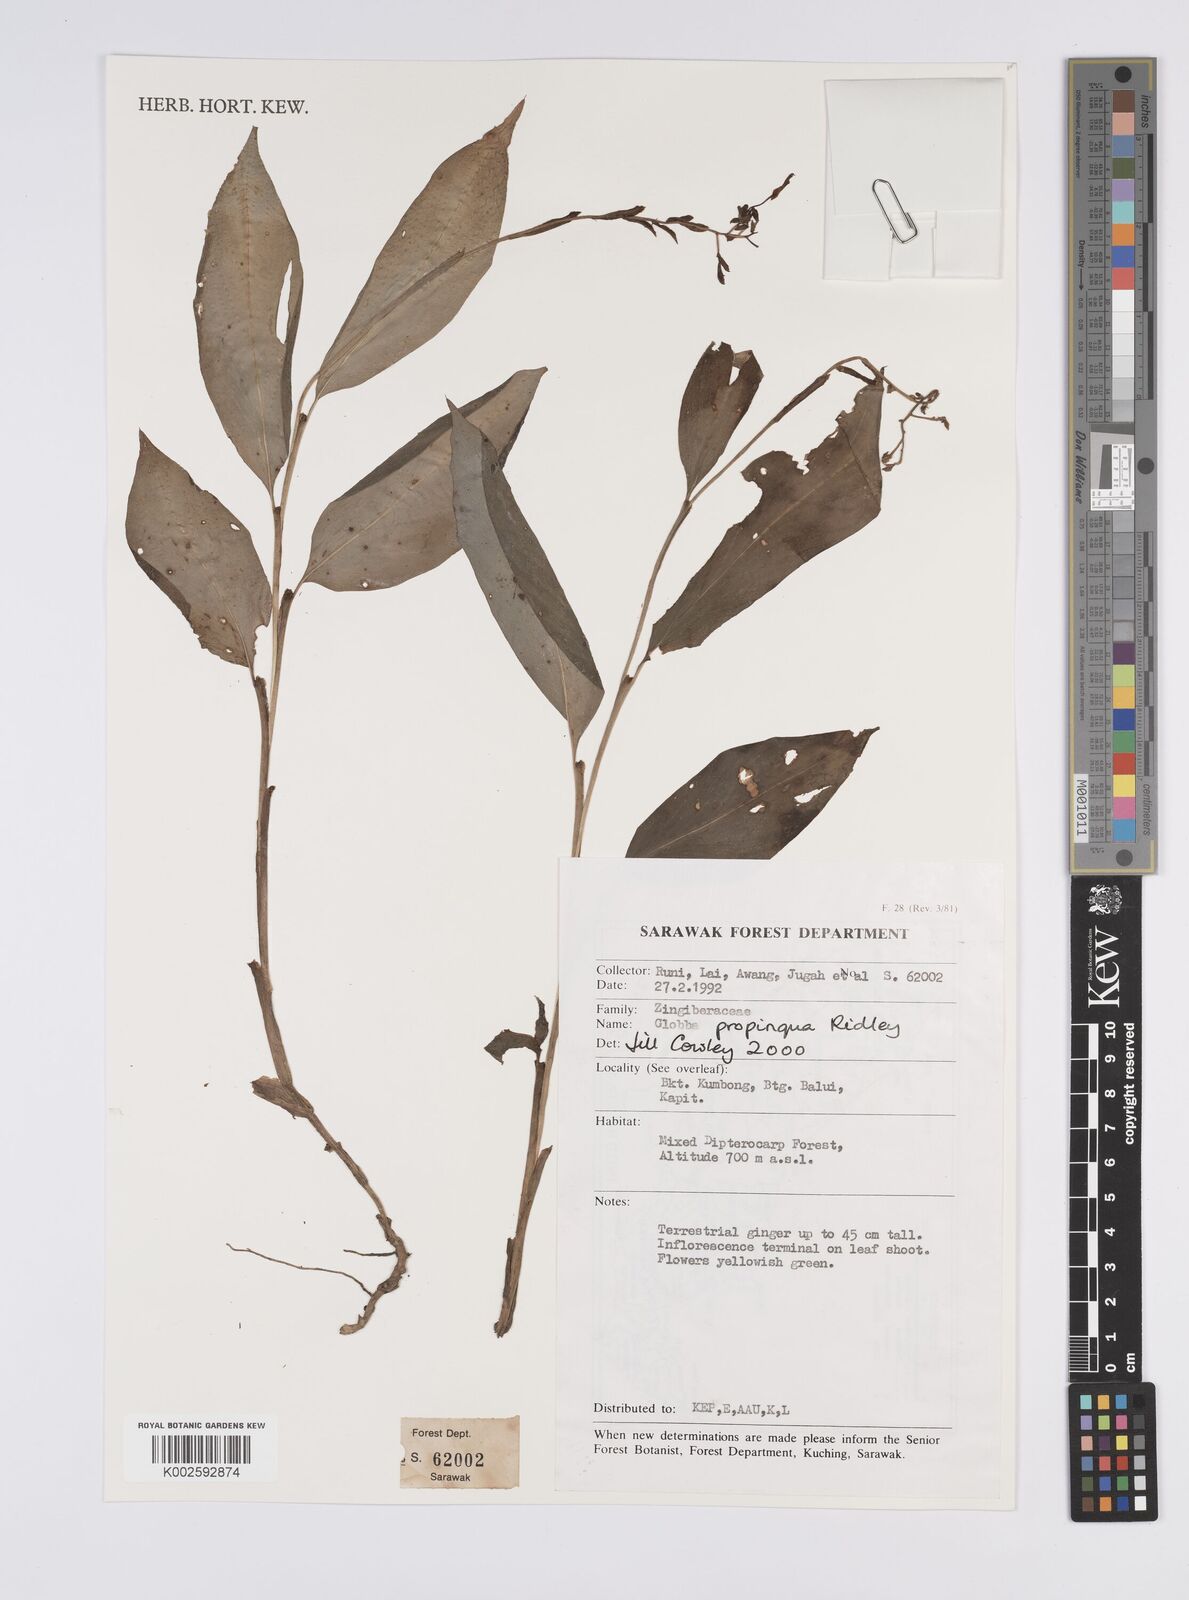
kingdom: Plantae
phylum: Tracheophyta
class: Liliopsida
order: Zingiberales
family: Zingiberaceae
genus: Globba
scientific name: Globba propinqua
